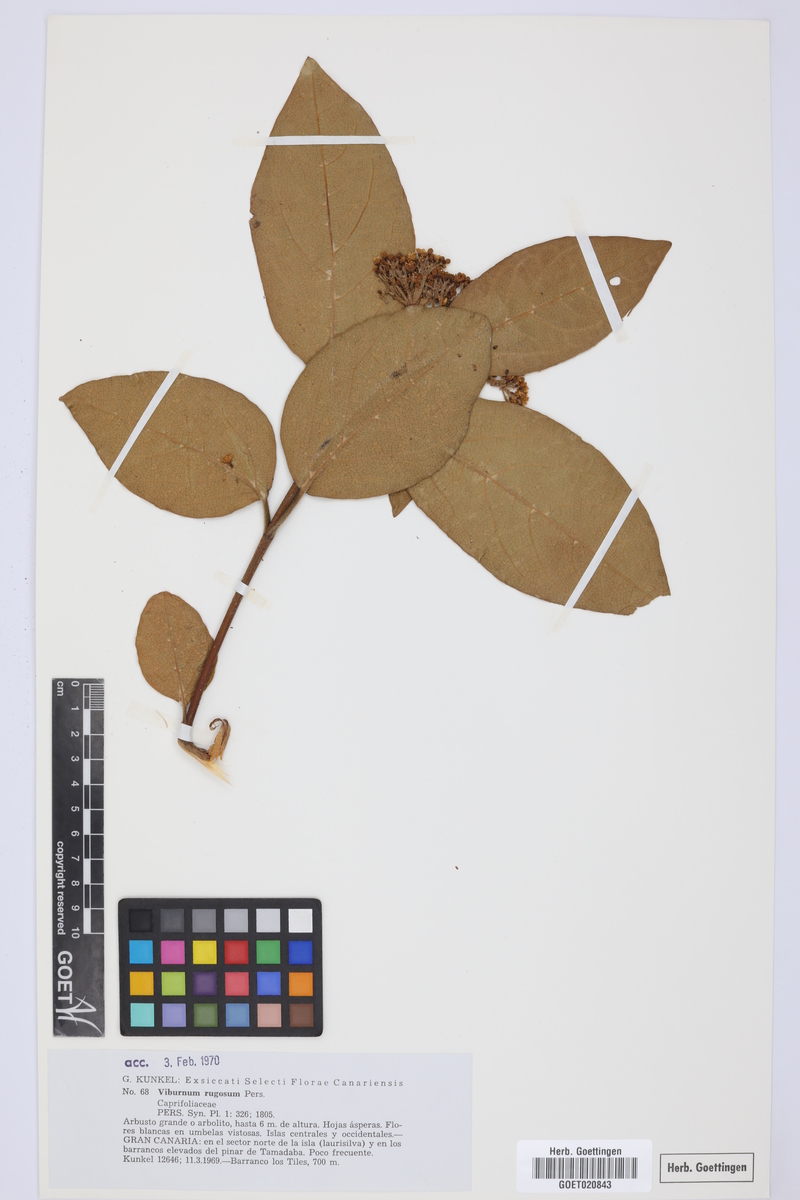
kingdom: Plantae
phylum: Tracheophyta
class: Magnoliopsida
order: Dipsacales
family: Viburnaceae
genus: Viburnum
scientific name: Viburnum rugosum
